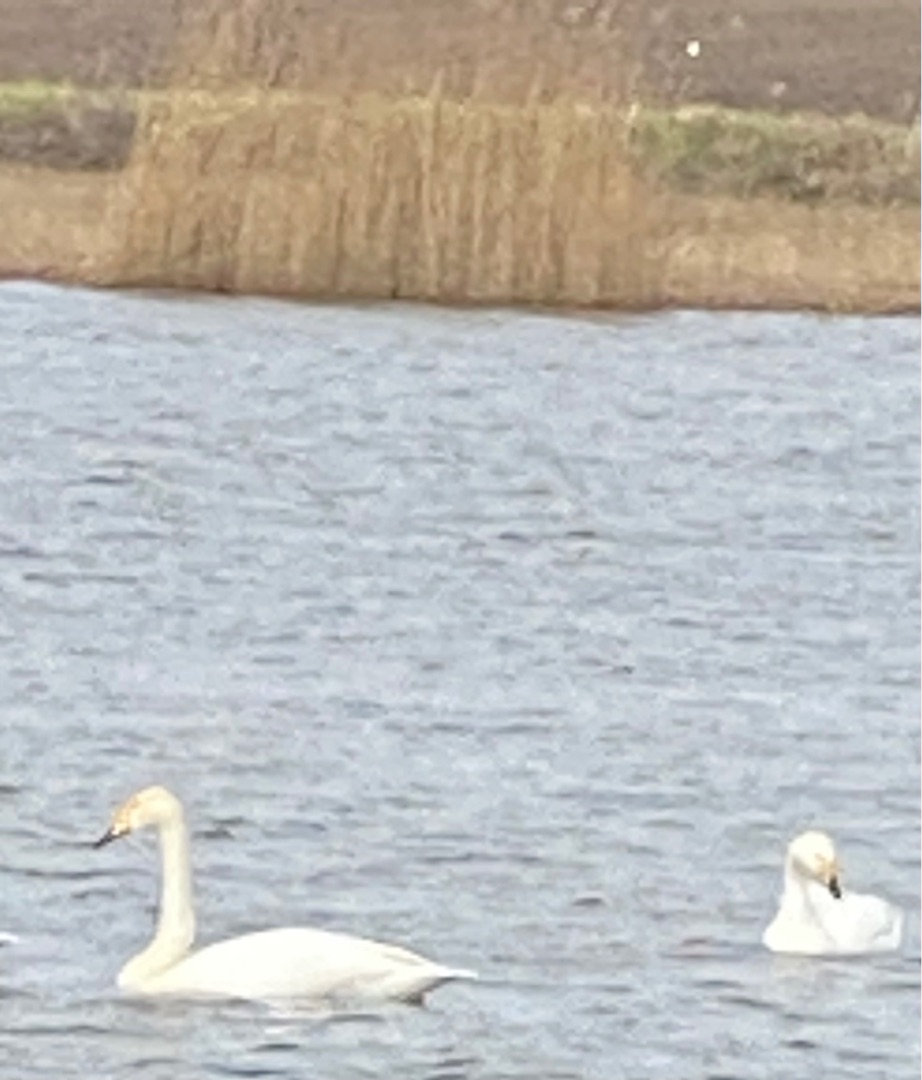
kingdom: Animalia
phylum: Chordata
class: Aves
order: Anseriformes
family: Anatidae
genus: Cygnus
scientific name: Cygnus cygnus
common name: Sangsvane
